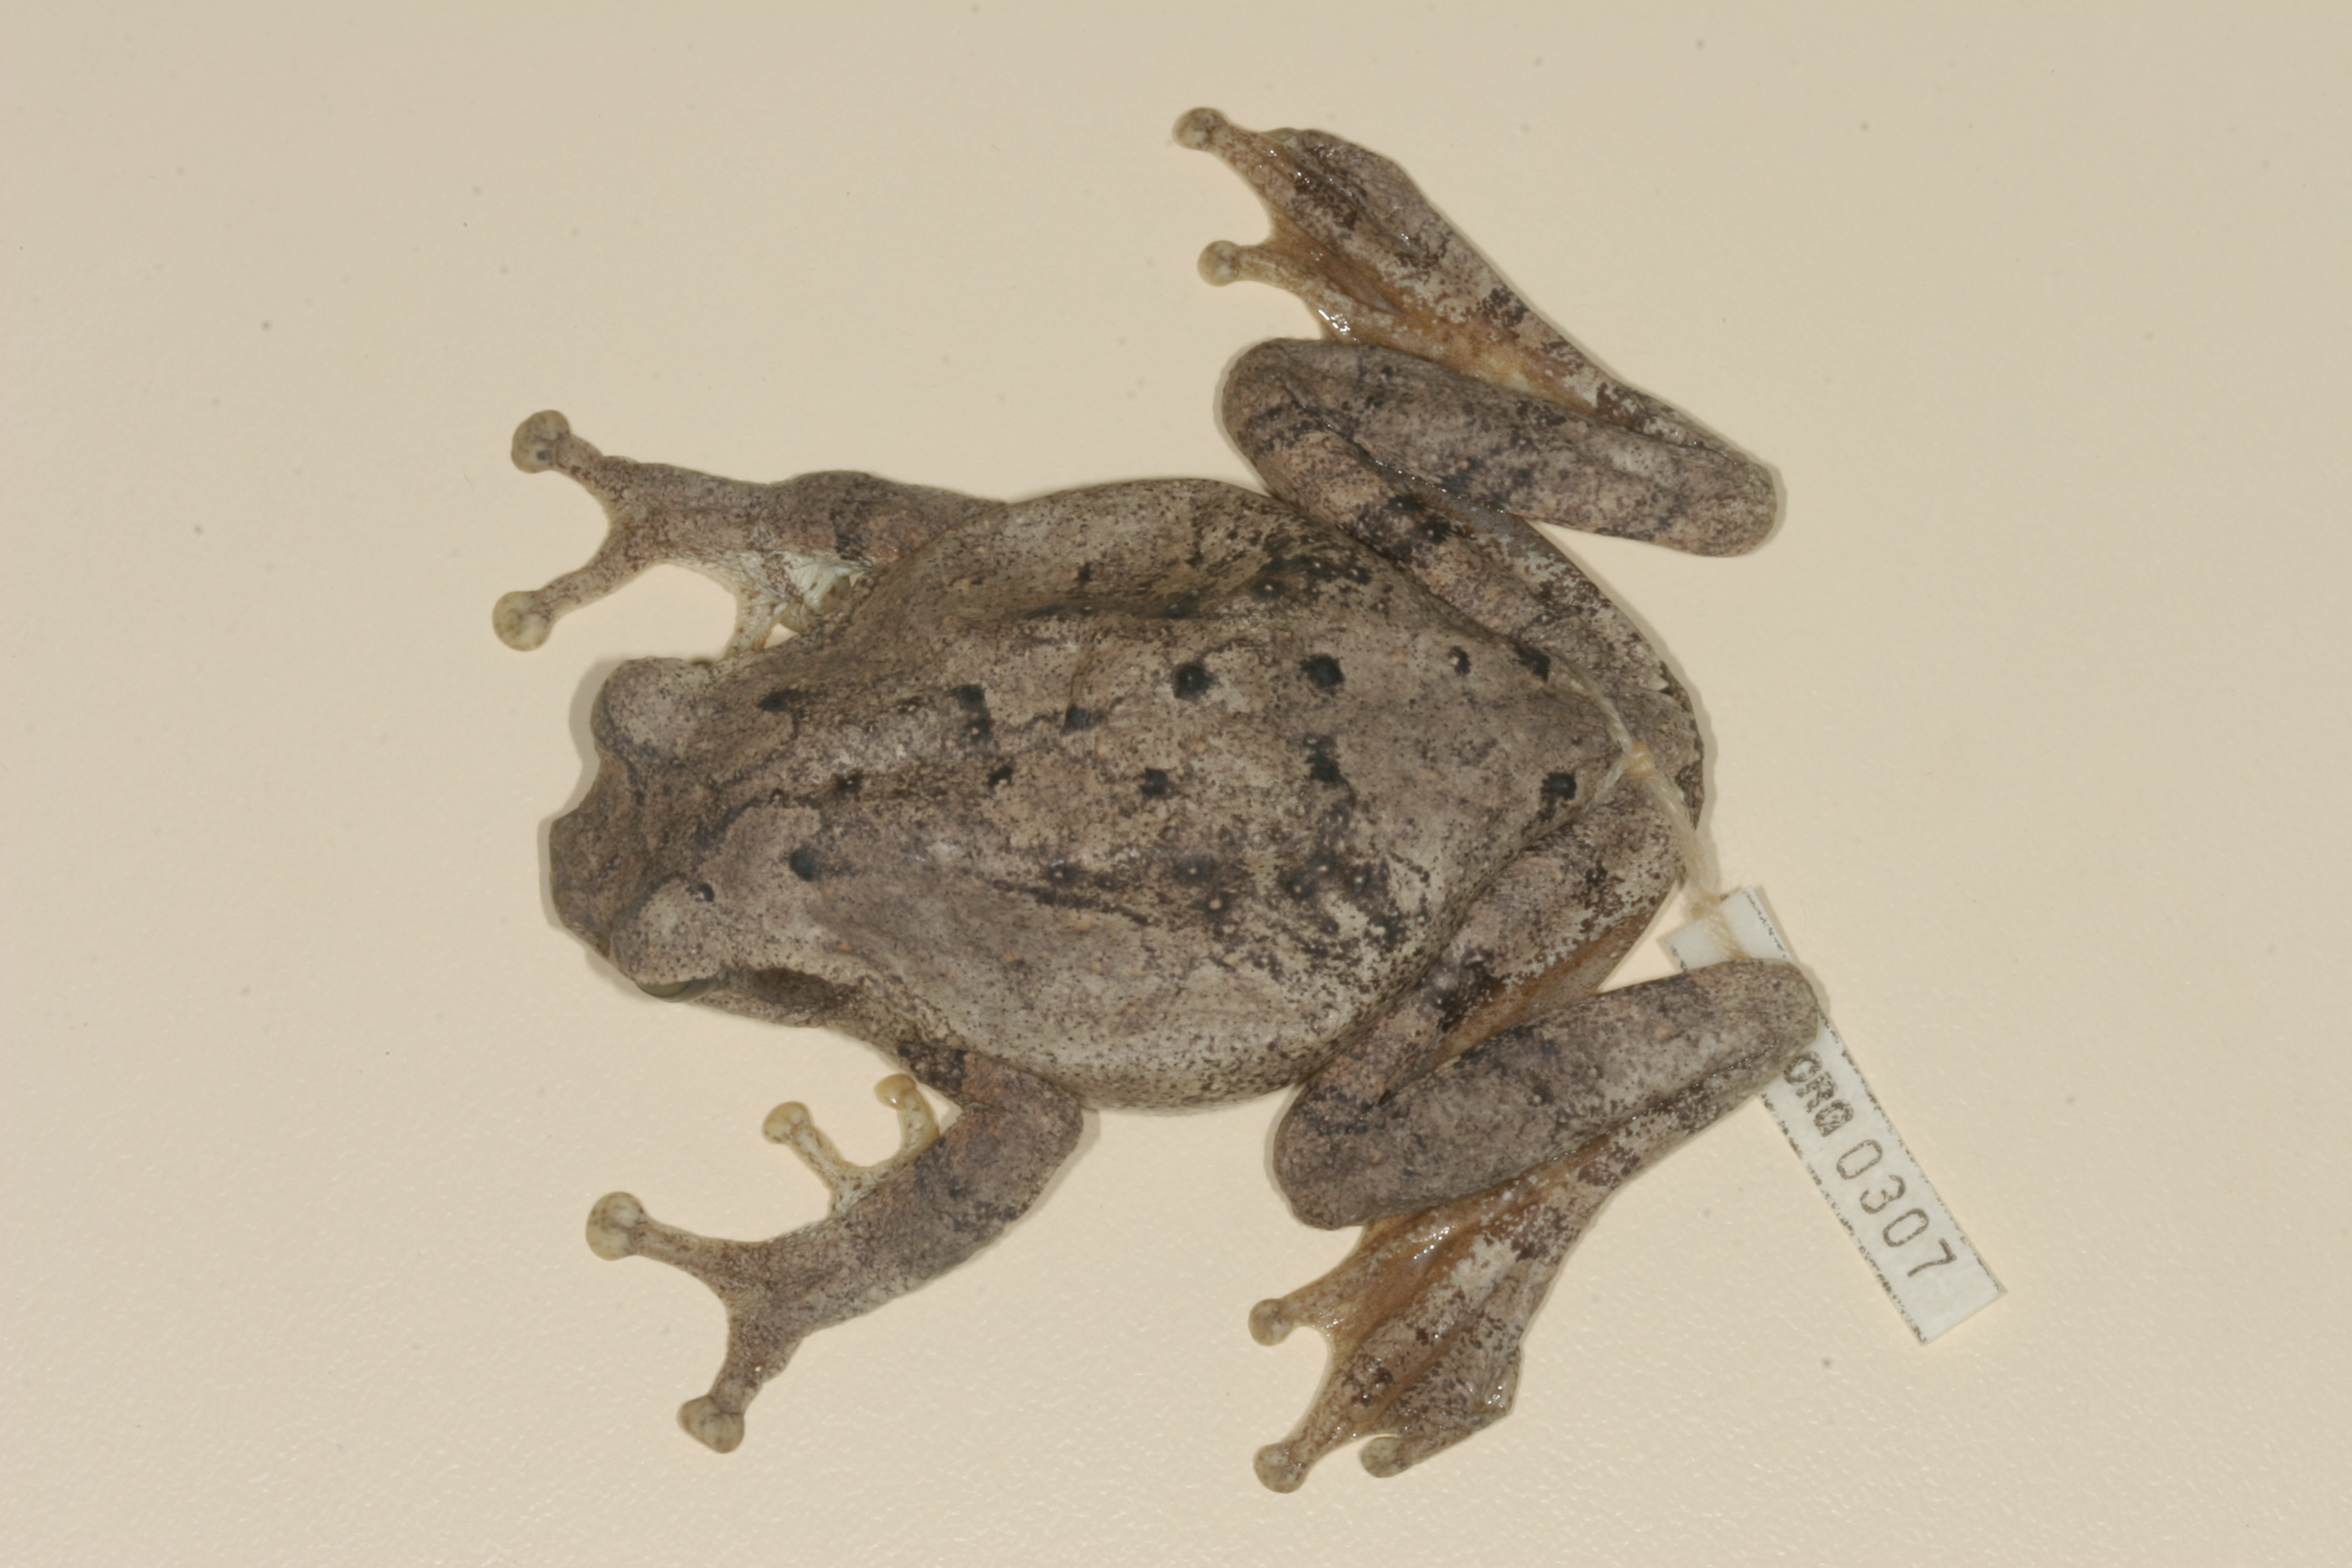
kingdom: Animalia
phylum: Chordata
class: Amphibia
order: Anura
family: Rhacophoridae
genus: Chiromantis
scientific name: Chiromantis xerampelina
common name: African gray treefrog
